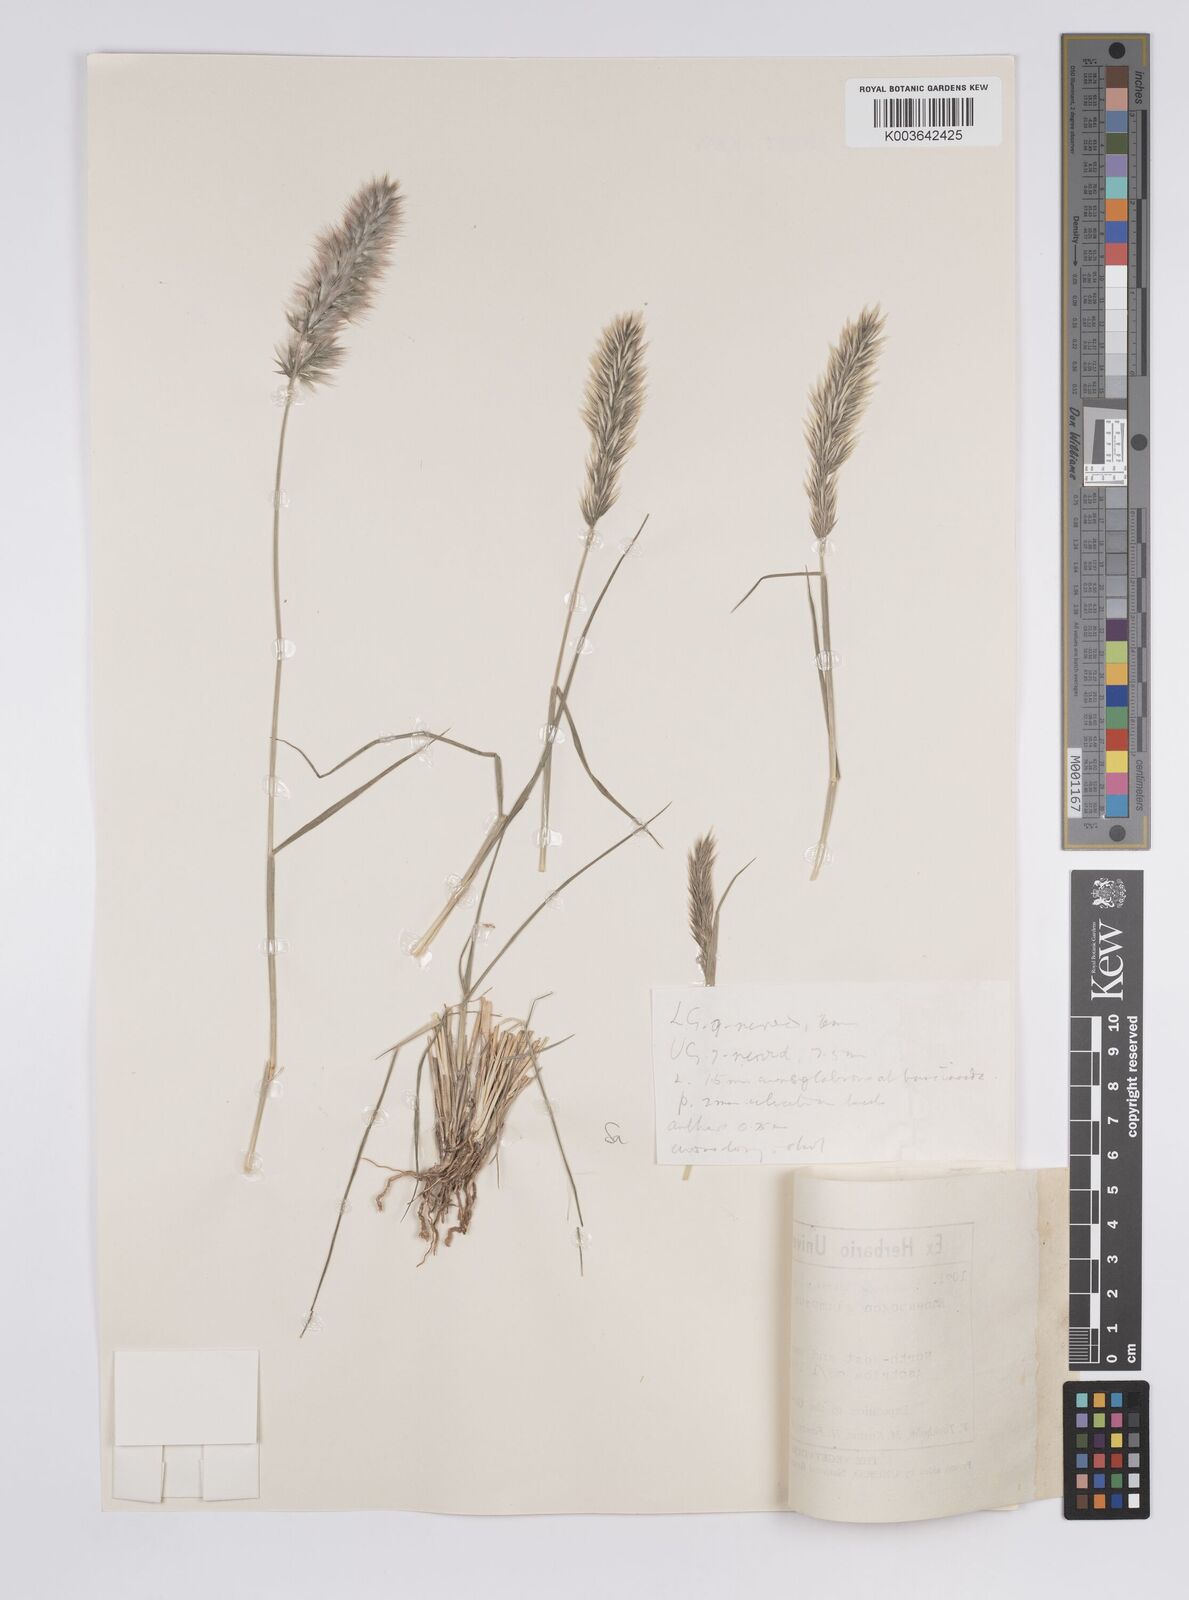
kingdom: Plantae
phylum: Tracheophyta
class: Liliopsida
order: Poales
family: Poaceae
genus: Enneapogon
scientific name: Enneapogon persicus
